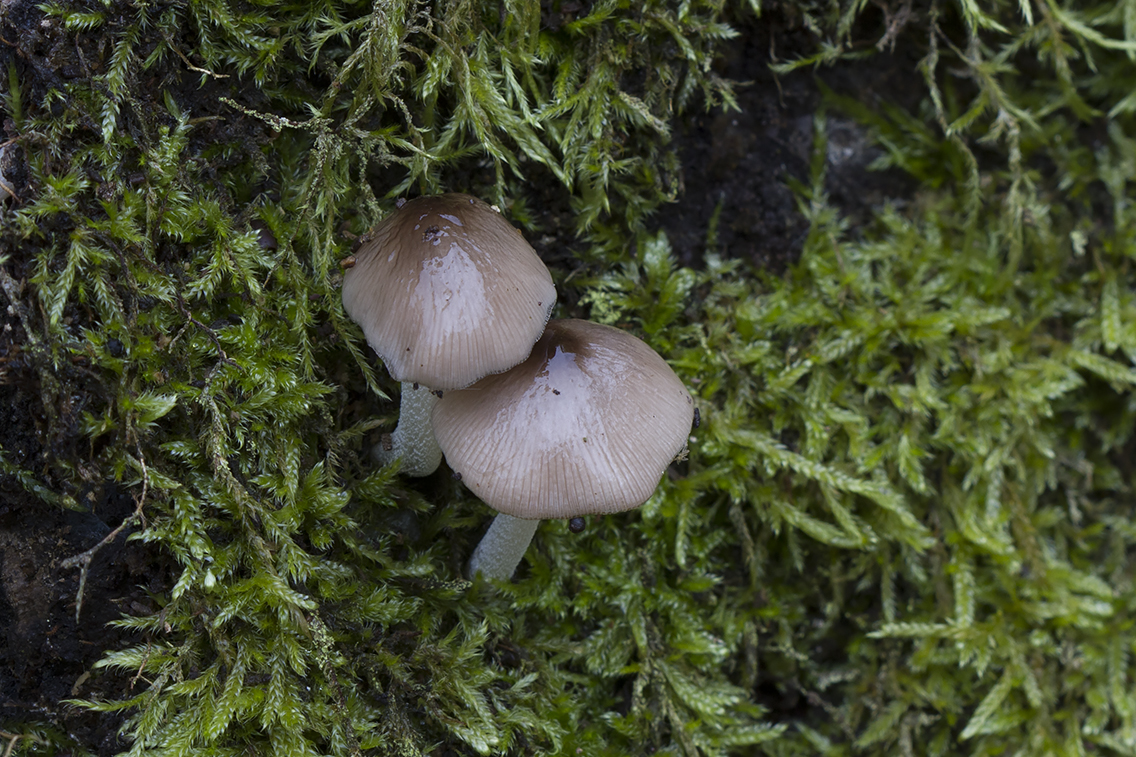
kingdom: Fungi
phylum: Basidiomycota
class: Agaricomycetes
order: Agaricales
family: Bolbitiaceae
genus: Bolbitius
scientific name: Bolbitius reticulatus
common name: netåret gulhat
